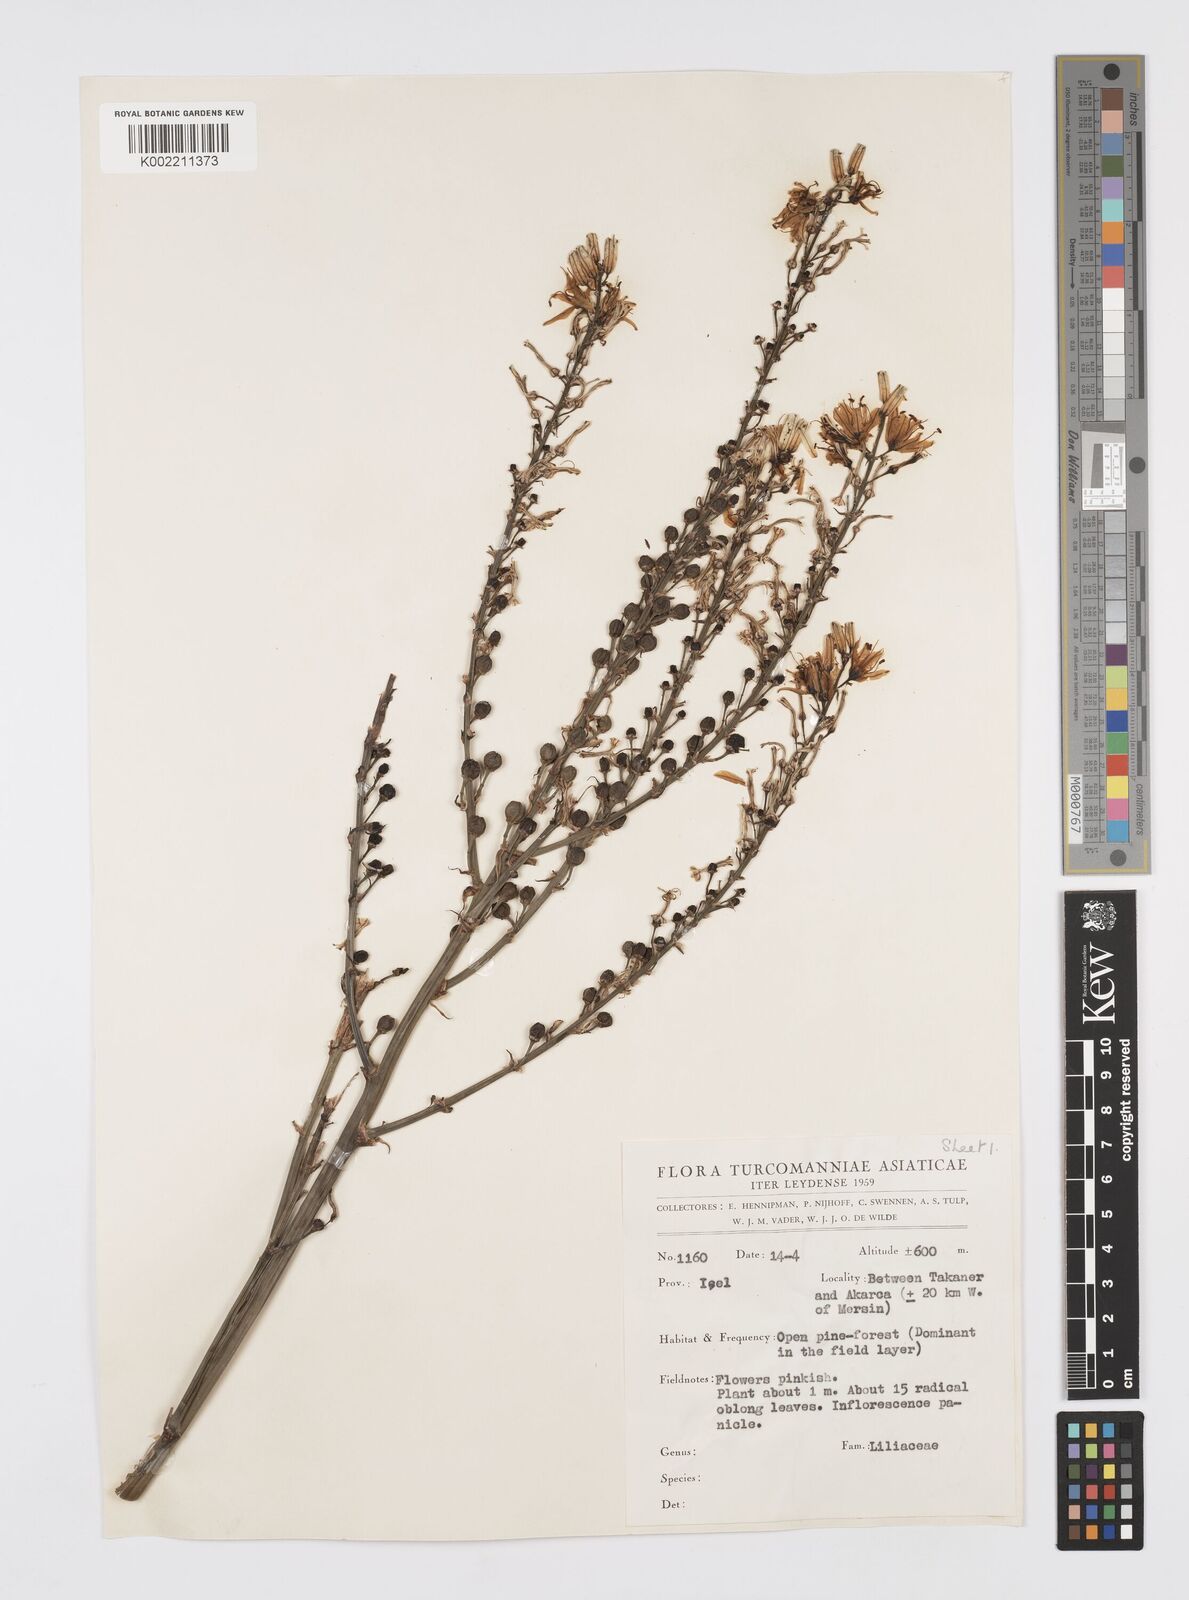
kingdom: Plantae
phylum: Tracheophyta
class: Liliopsida
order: Asparagales
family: Asphodelaceae
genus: Asphodelus
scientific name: Asphodelus
